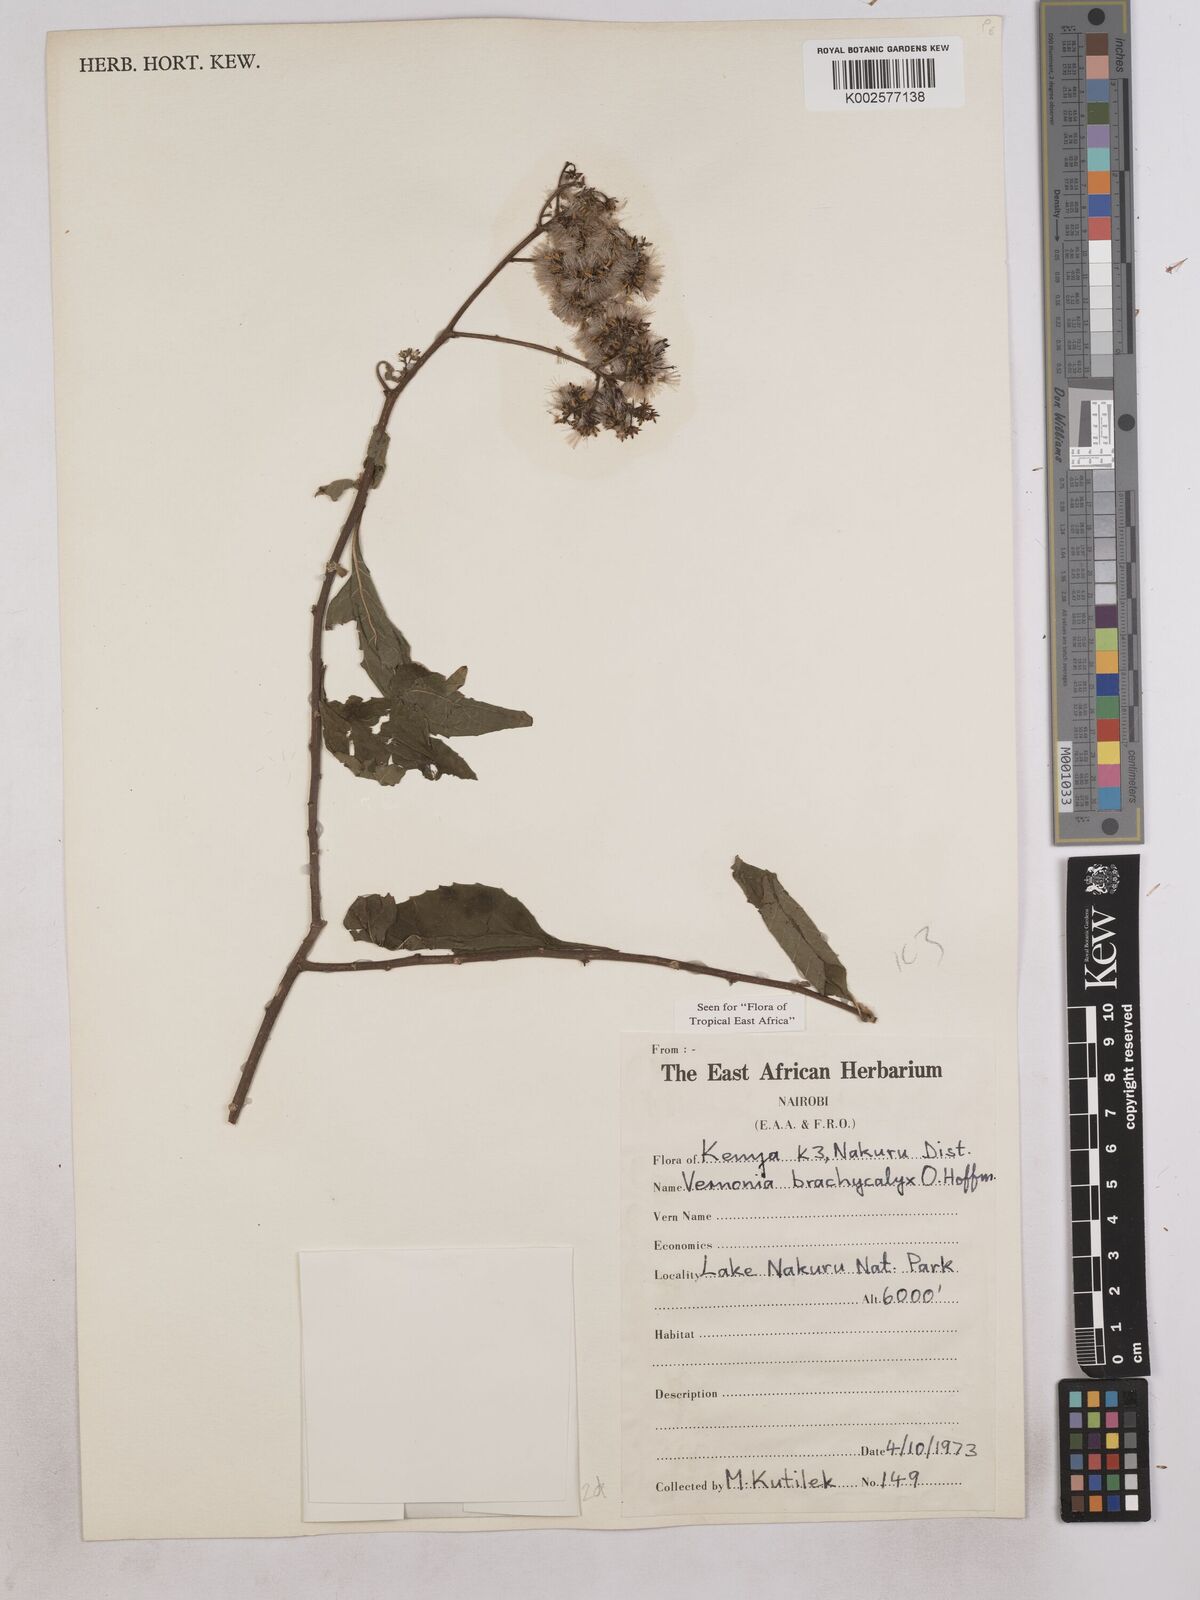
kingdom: Plantae
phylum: Tracheophyta
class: Magnoliopsida
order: Asterales
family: Asteraceae
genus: Hoffmannanthus
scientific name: Hoffmannanthus abbotianus
